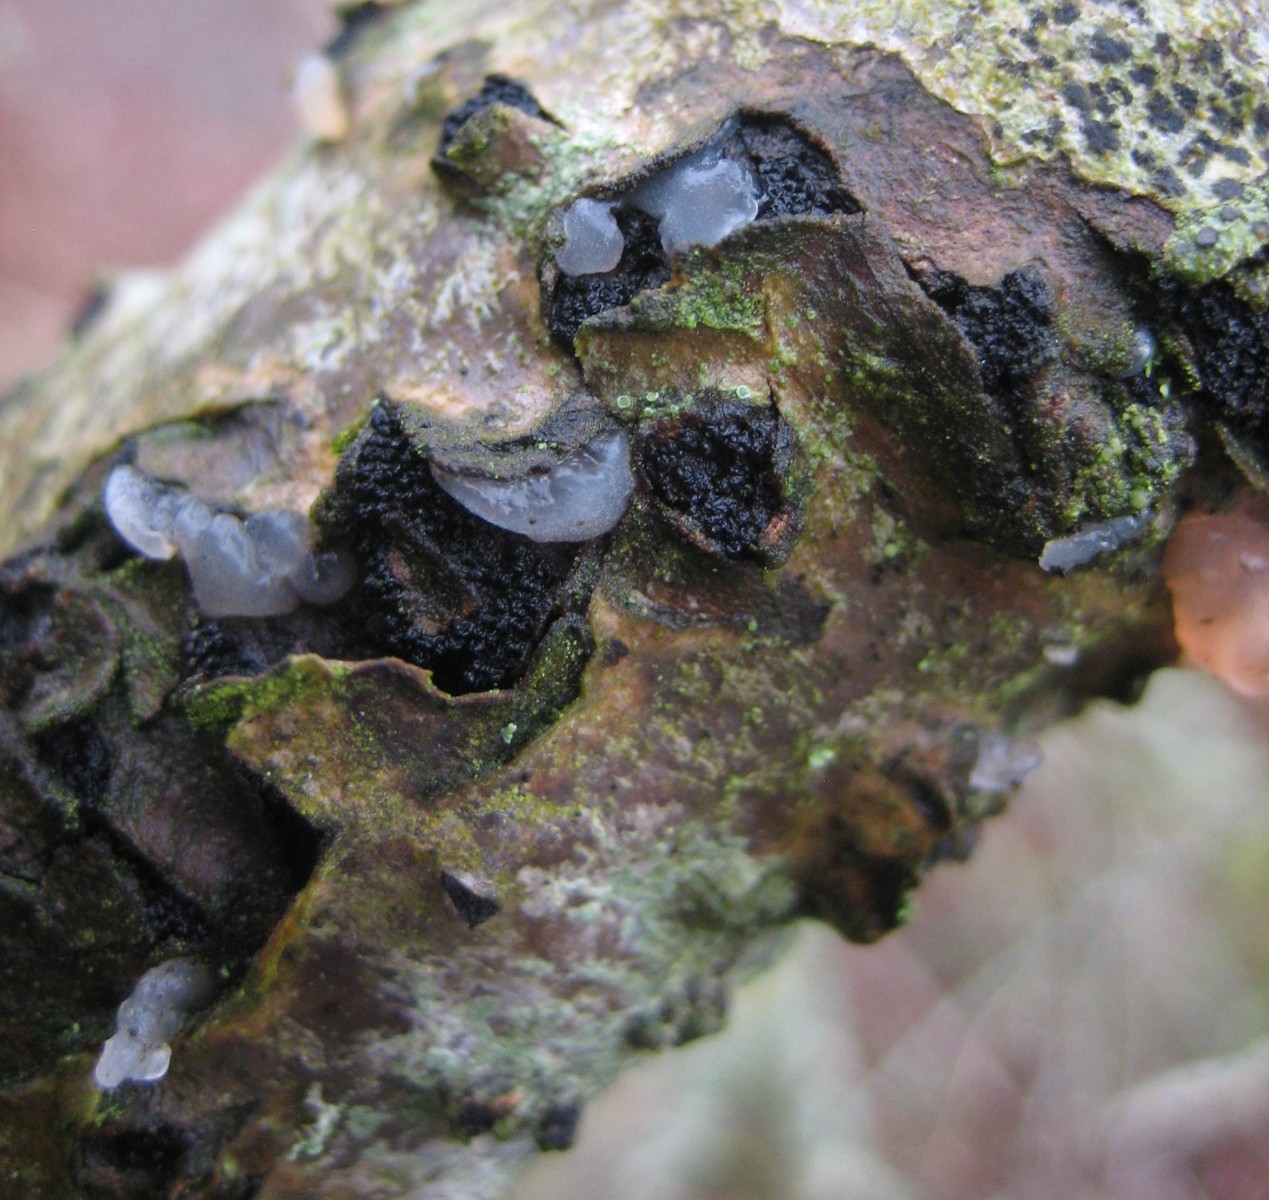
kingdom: Fungi
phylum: Basidiomycota
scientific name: Basidiomycota
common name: basidiesvampe
